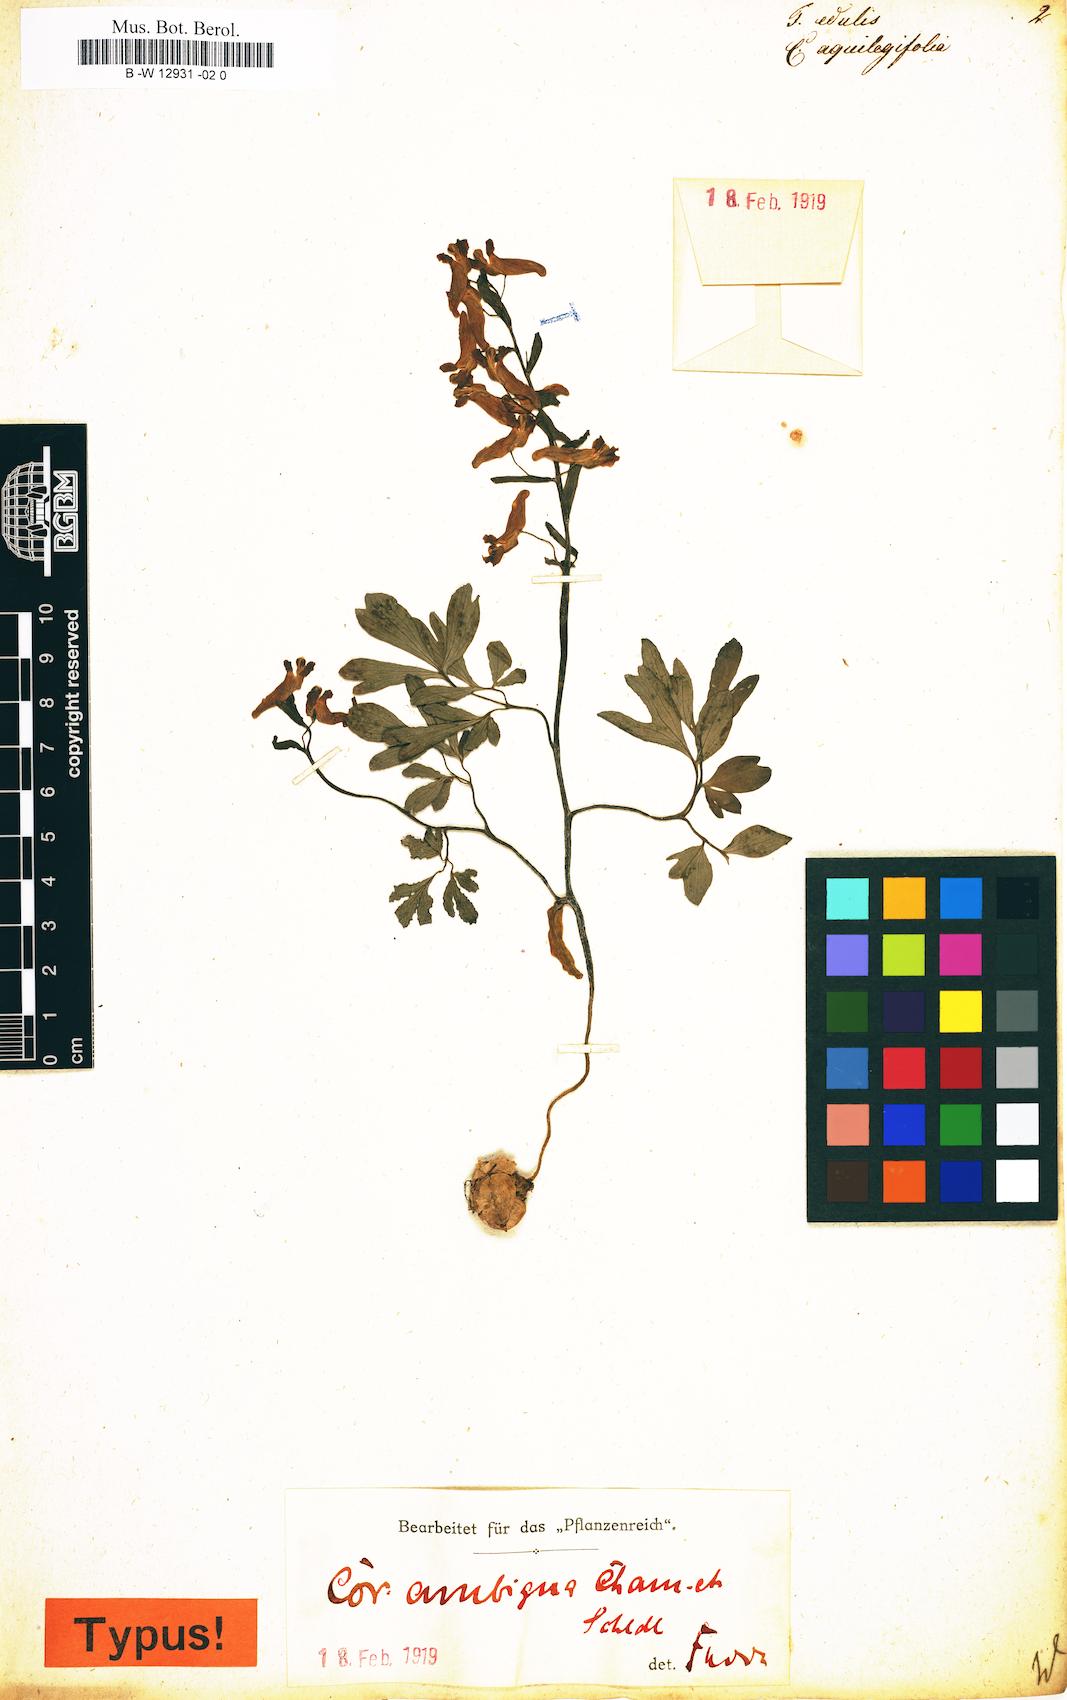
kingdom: Plantae
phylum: Tracheophyta
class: Magnoliopsida
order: Ranunculales
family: Papaveraceae
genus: Fumaria
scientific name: Fumaria
